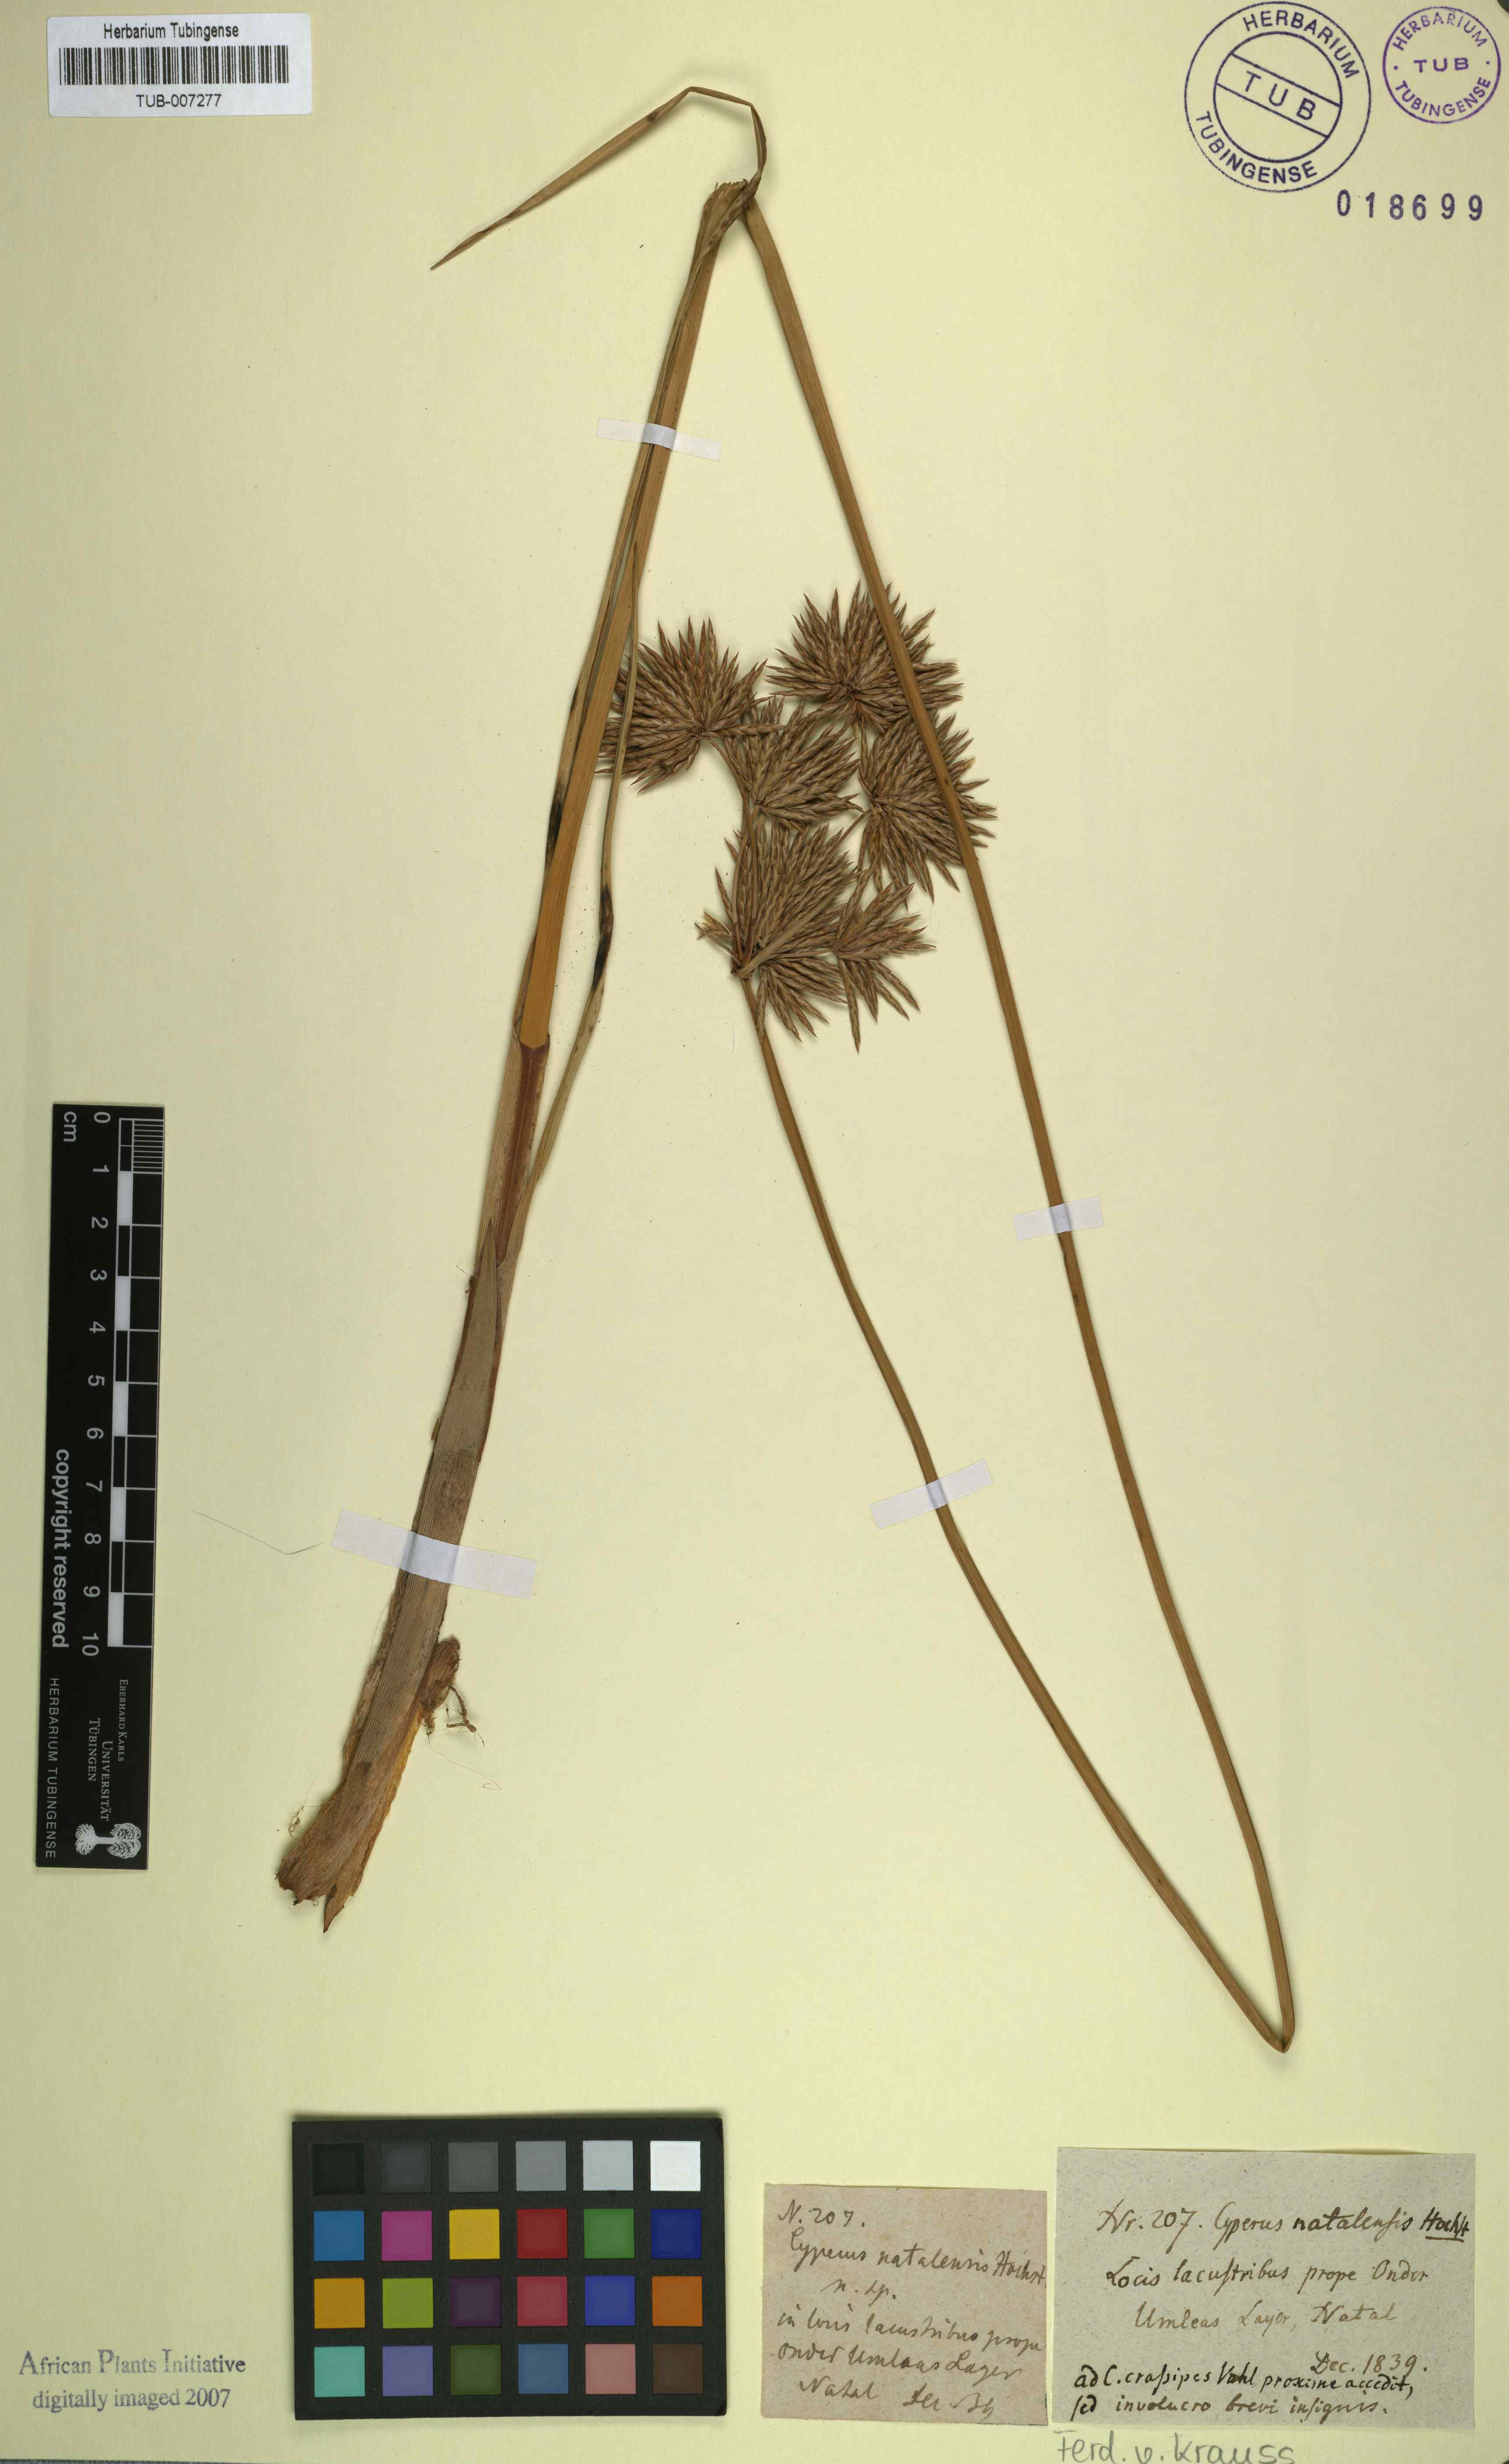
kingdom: Plantae
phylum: Tracheophyta
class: Liliopsida
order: Poales
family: Cyperaceae
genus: Cyperus
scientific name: Cyperus natalensis
